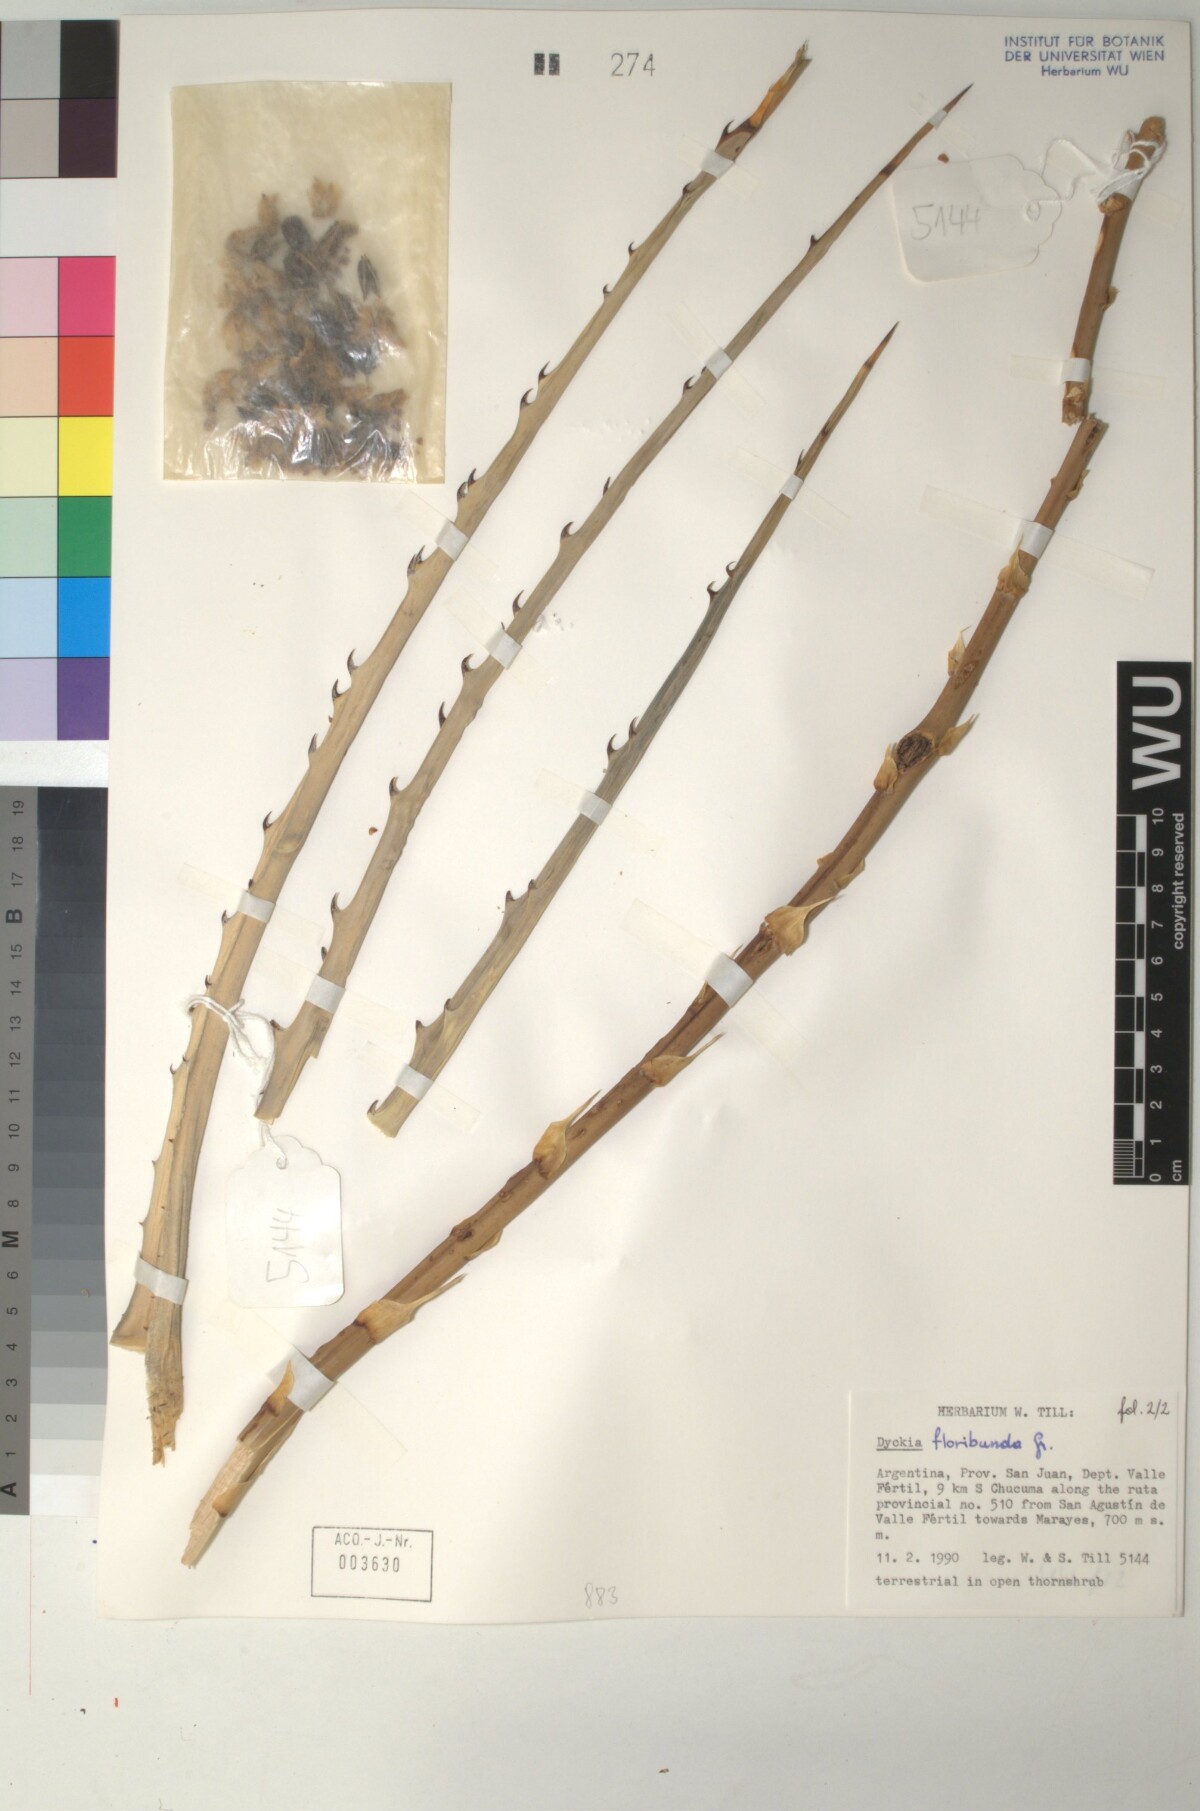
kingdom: Plantae
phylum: Tracheophyta
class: Liliopsida
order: Poales
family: Bromeliaceae
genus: Dyckia
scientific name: Dyckia floribunda
